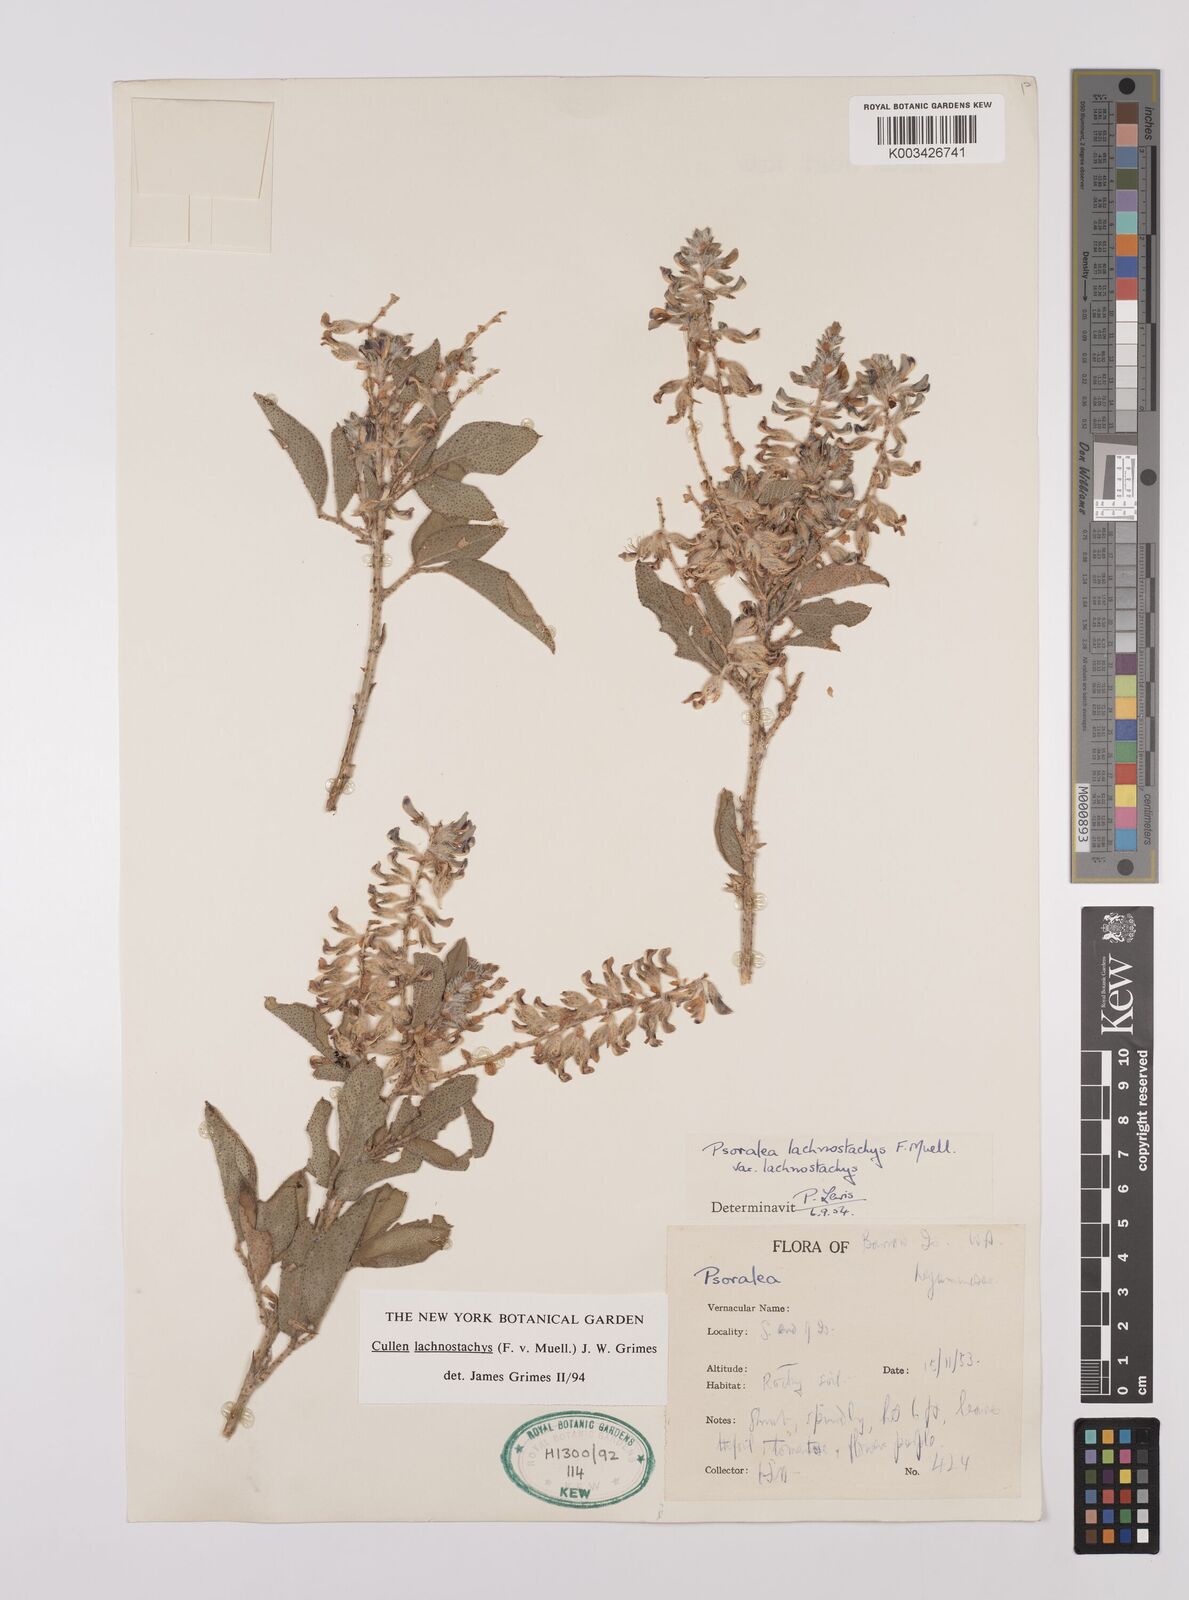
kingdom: Plantae
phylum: Tracheophyta
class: Magnoliopsida
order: Fabales
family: Fabaceae
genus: Cullen
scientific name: Cullen lachnostachys
